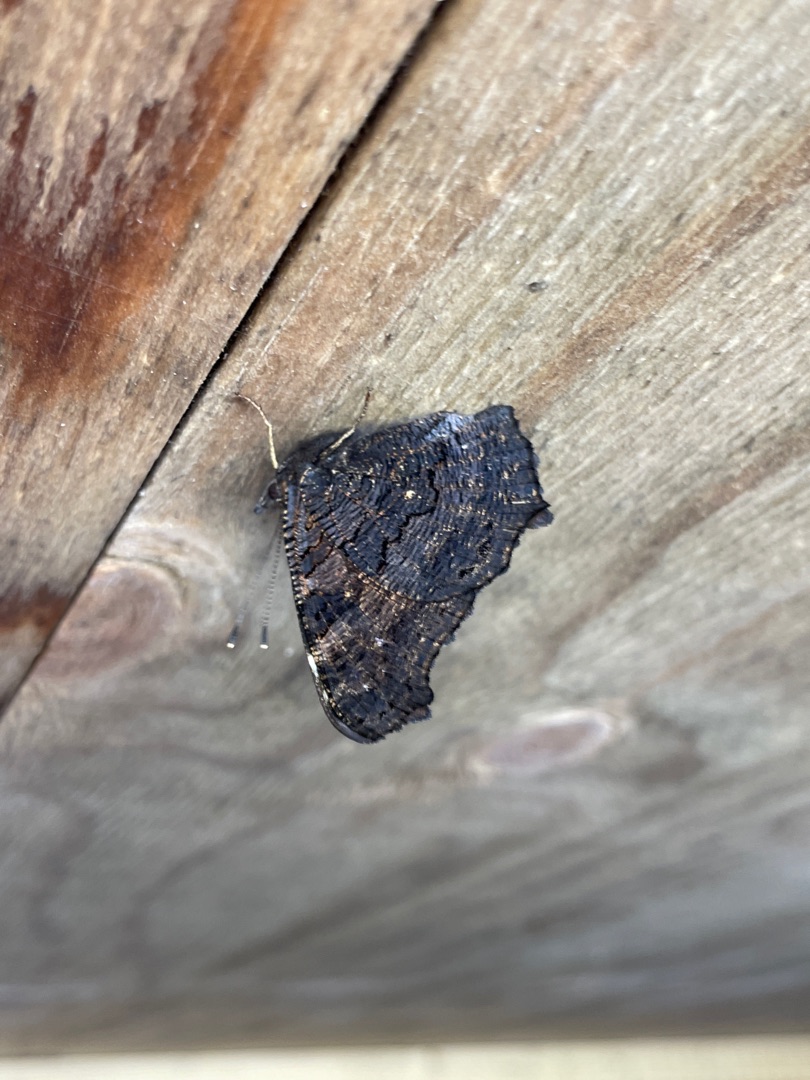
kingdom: Animalia
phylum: Arthropoda
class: Insecta
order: Lepidoptera
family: Nymphalidae
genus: Aglais
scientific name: Aglais io
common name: Dagpåfugleøje
